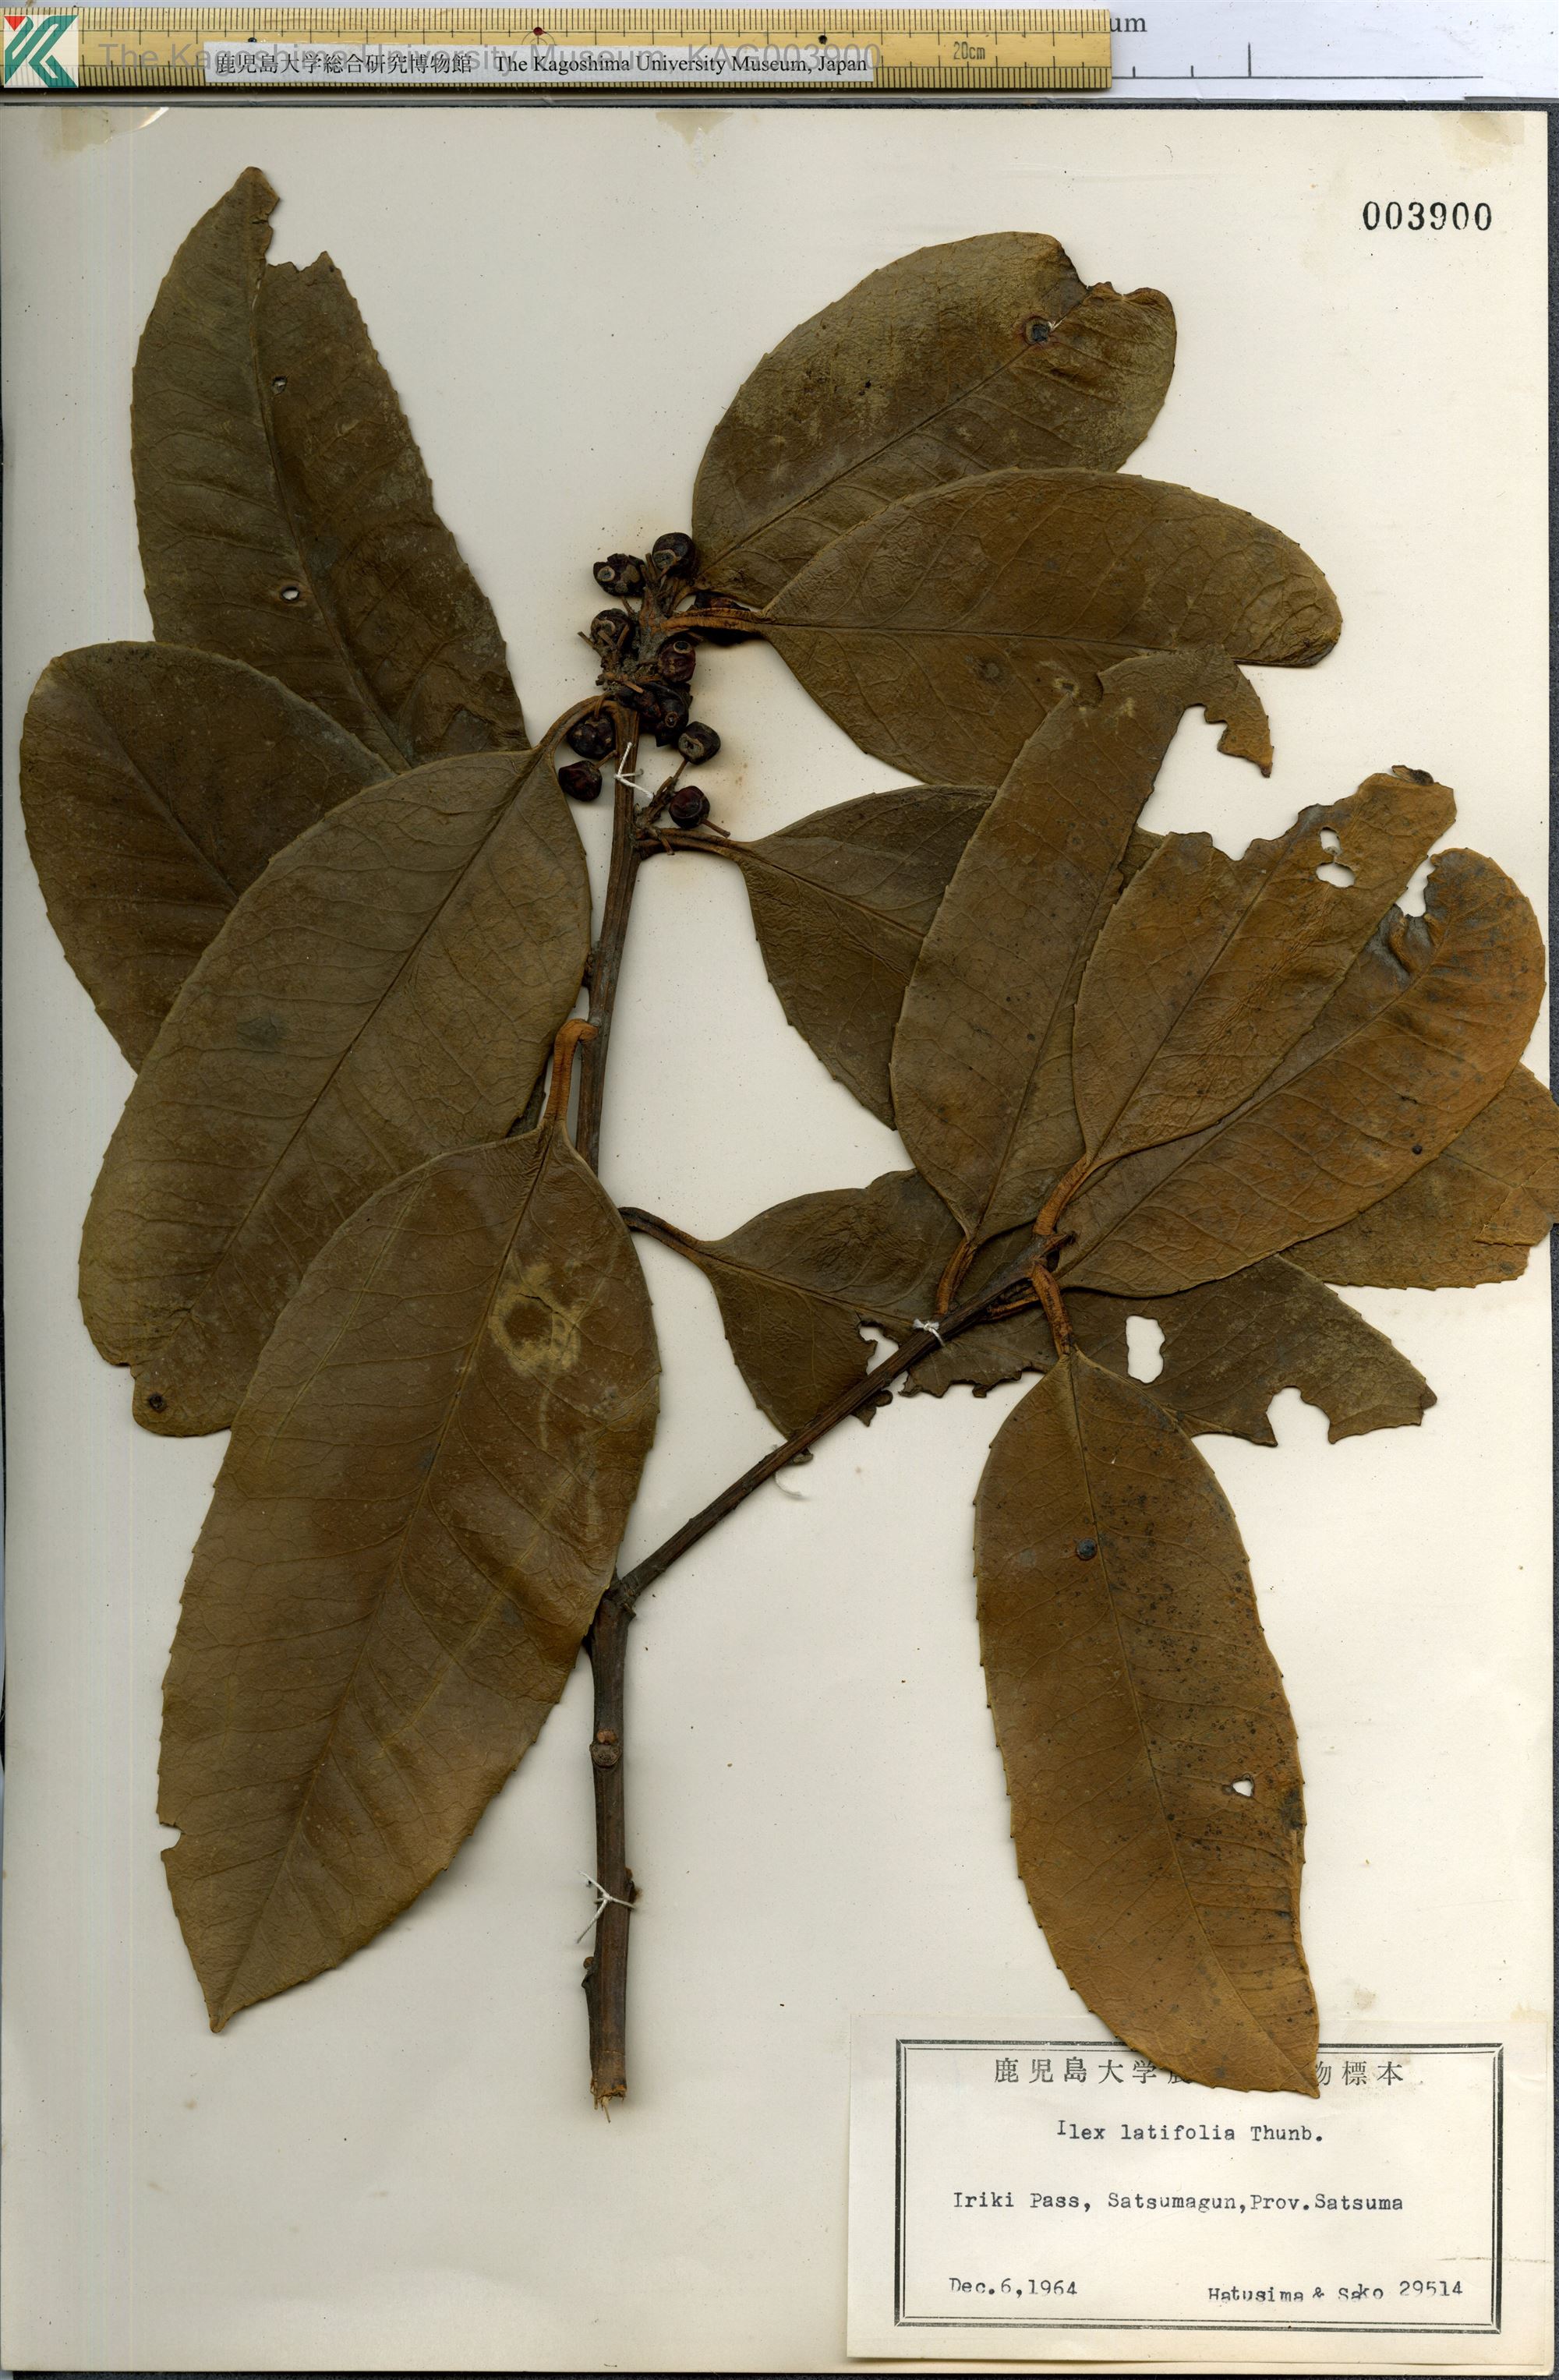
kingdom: Plantae
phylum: Tracheophyta
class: Magnoliopsida
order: Aquifoliales
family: Aquifoliaceae
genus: Ilex
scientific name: Ilex latifolia
